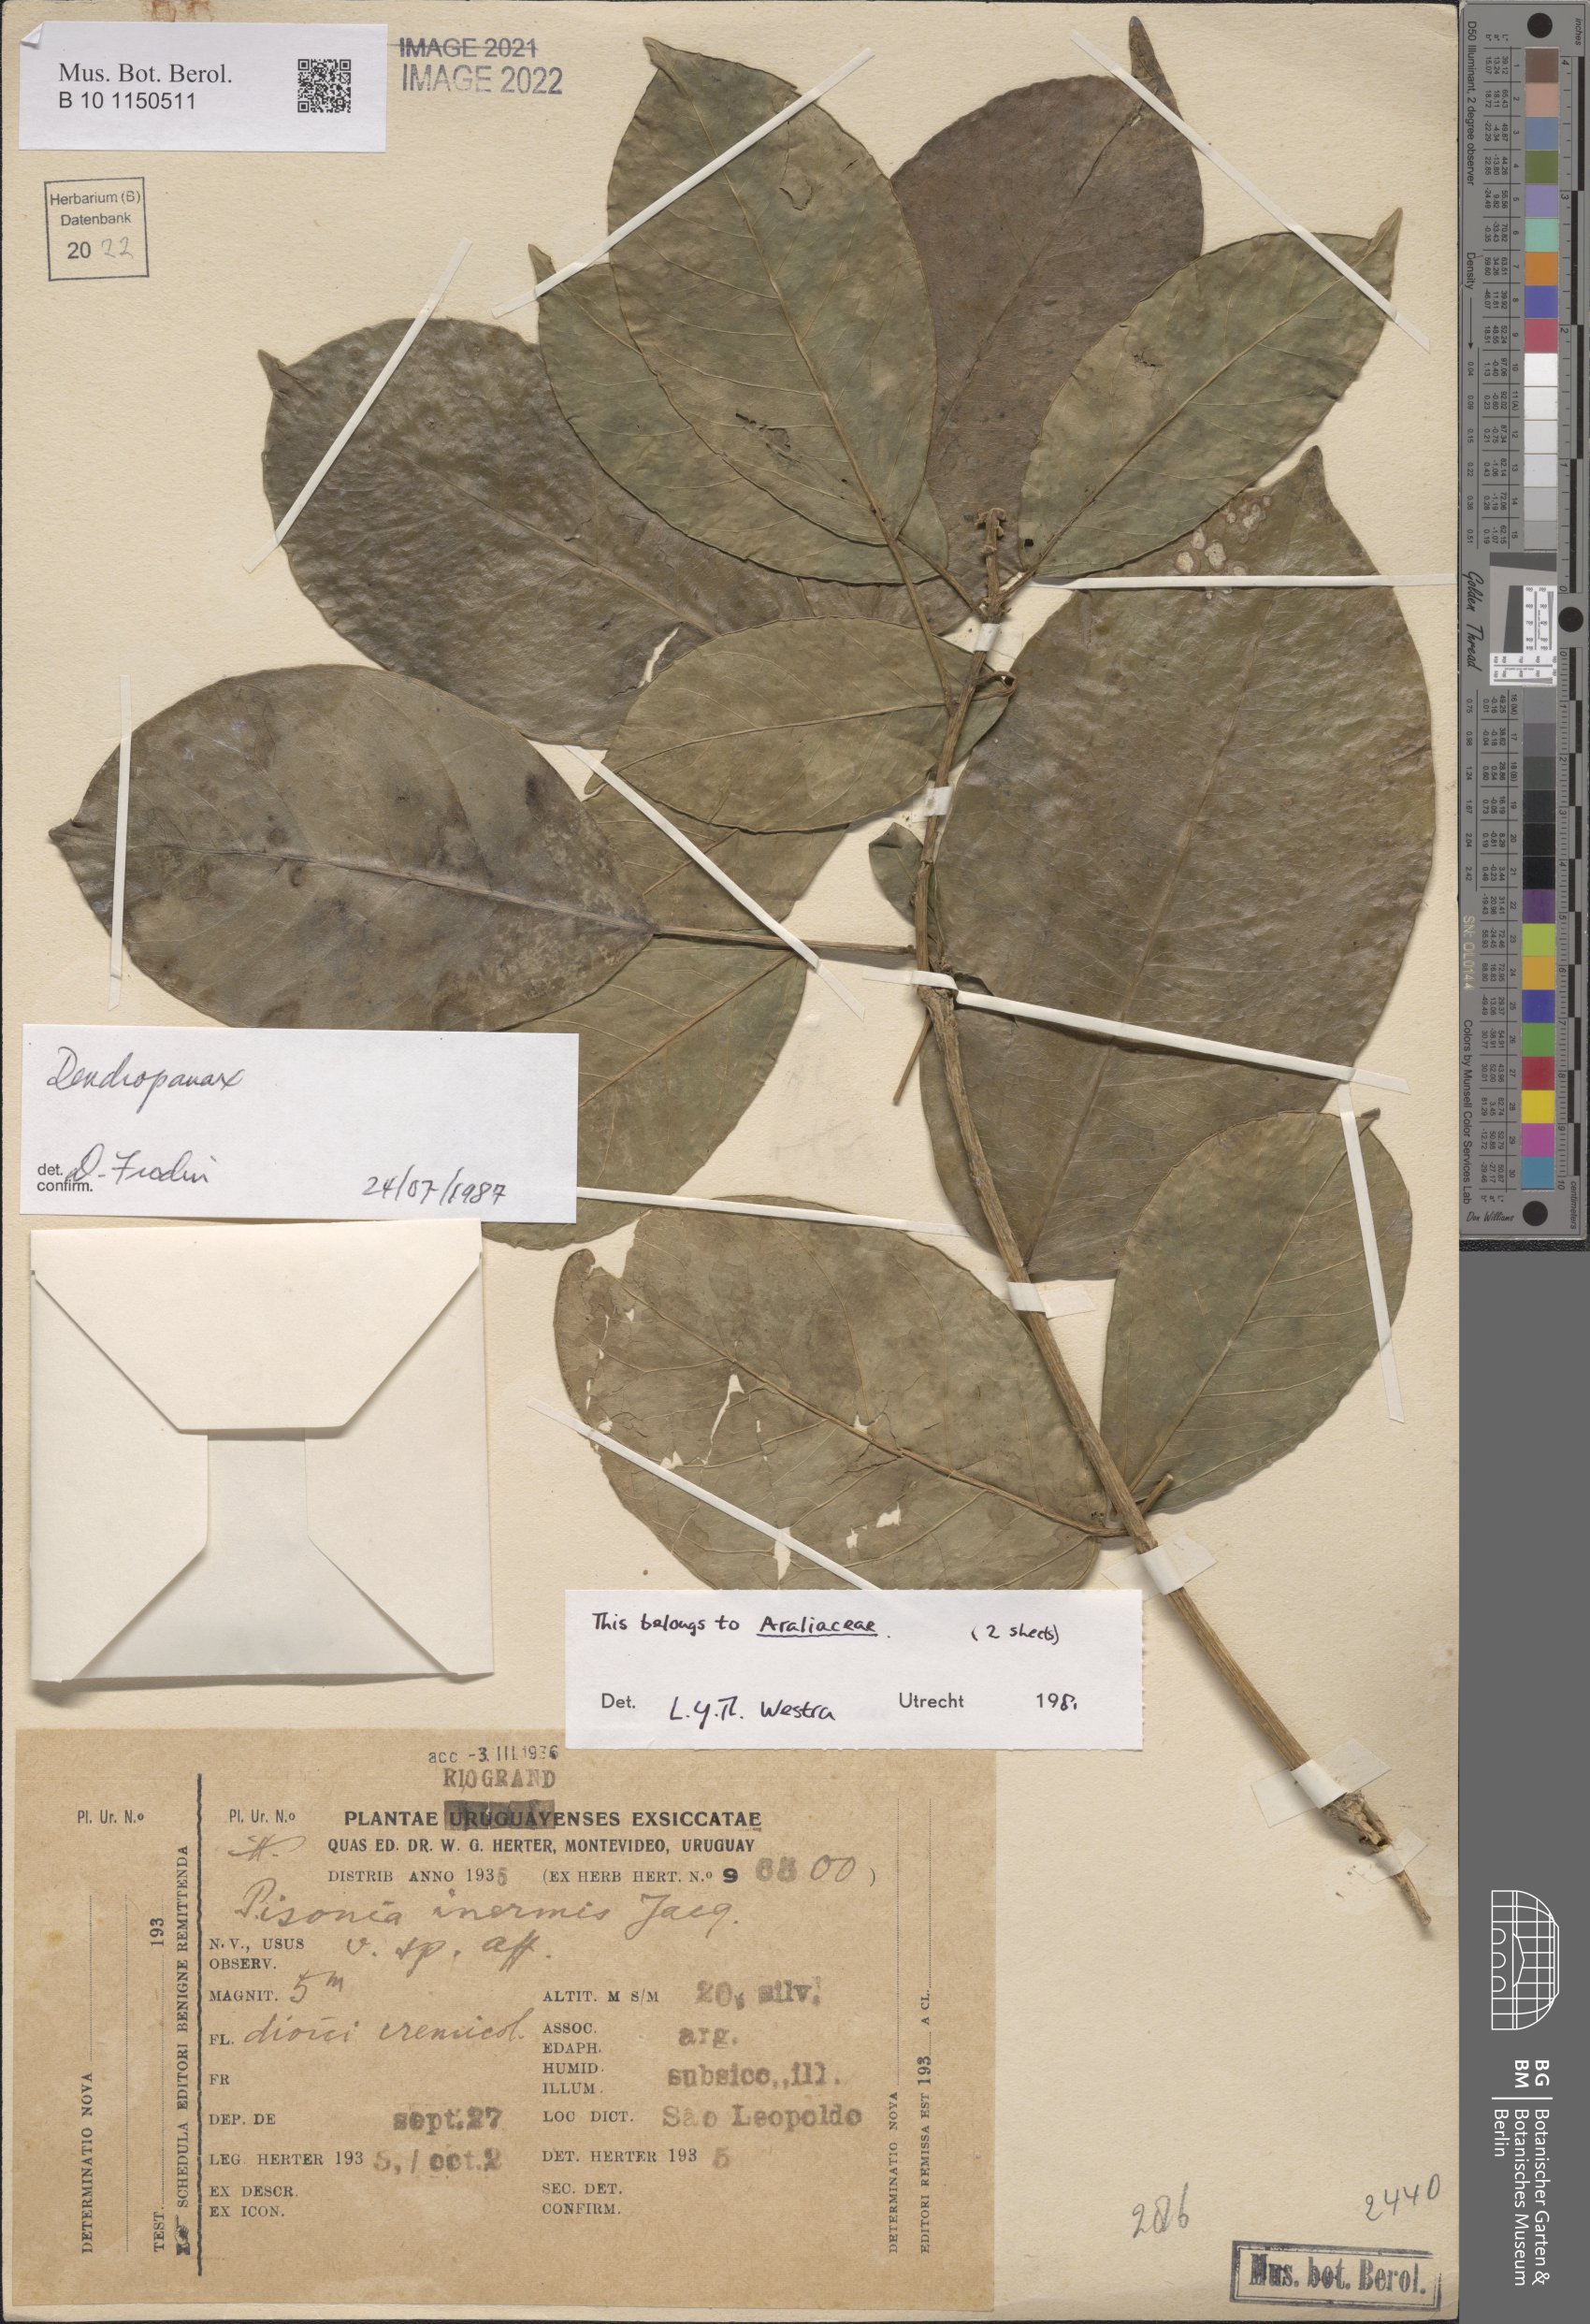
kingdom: Plantae
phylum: Tracheophyta
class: Magnoliopsida
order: Apiales
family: Araliaceae
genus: Dendropanax
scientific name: Dendropanax
